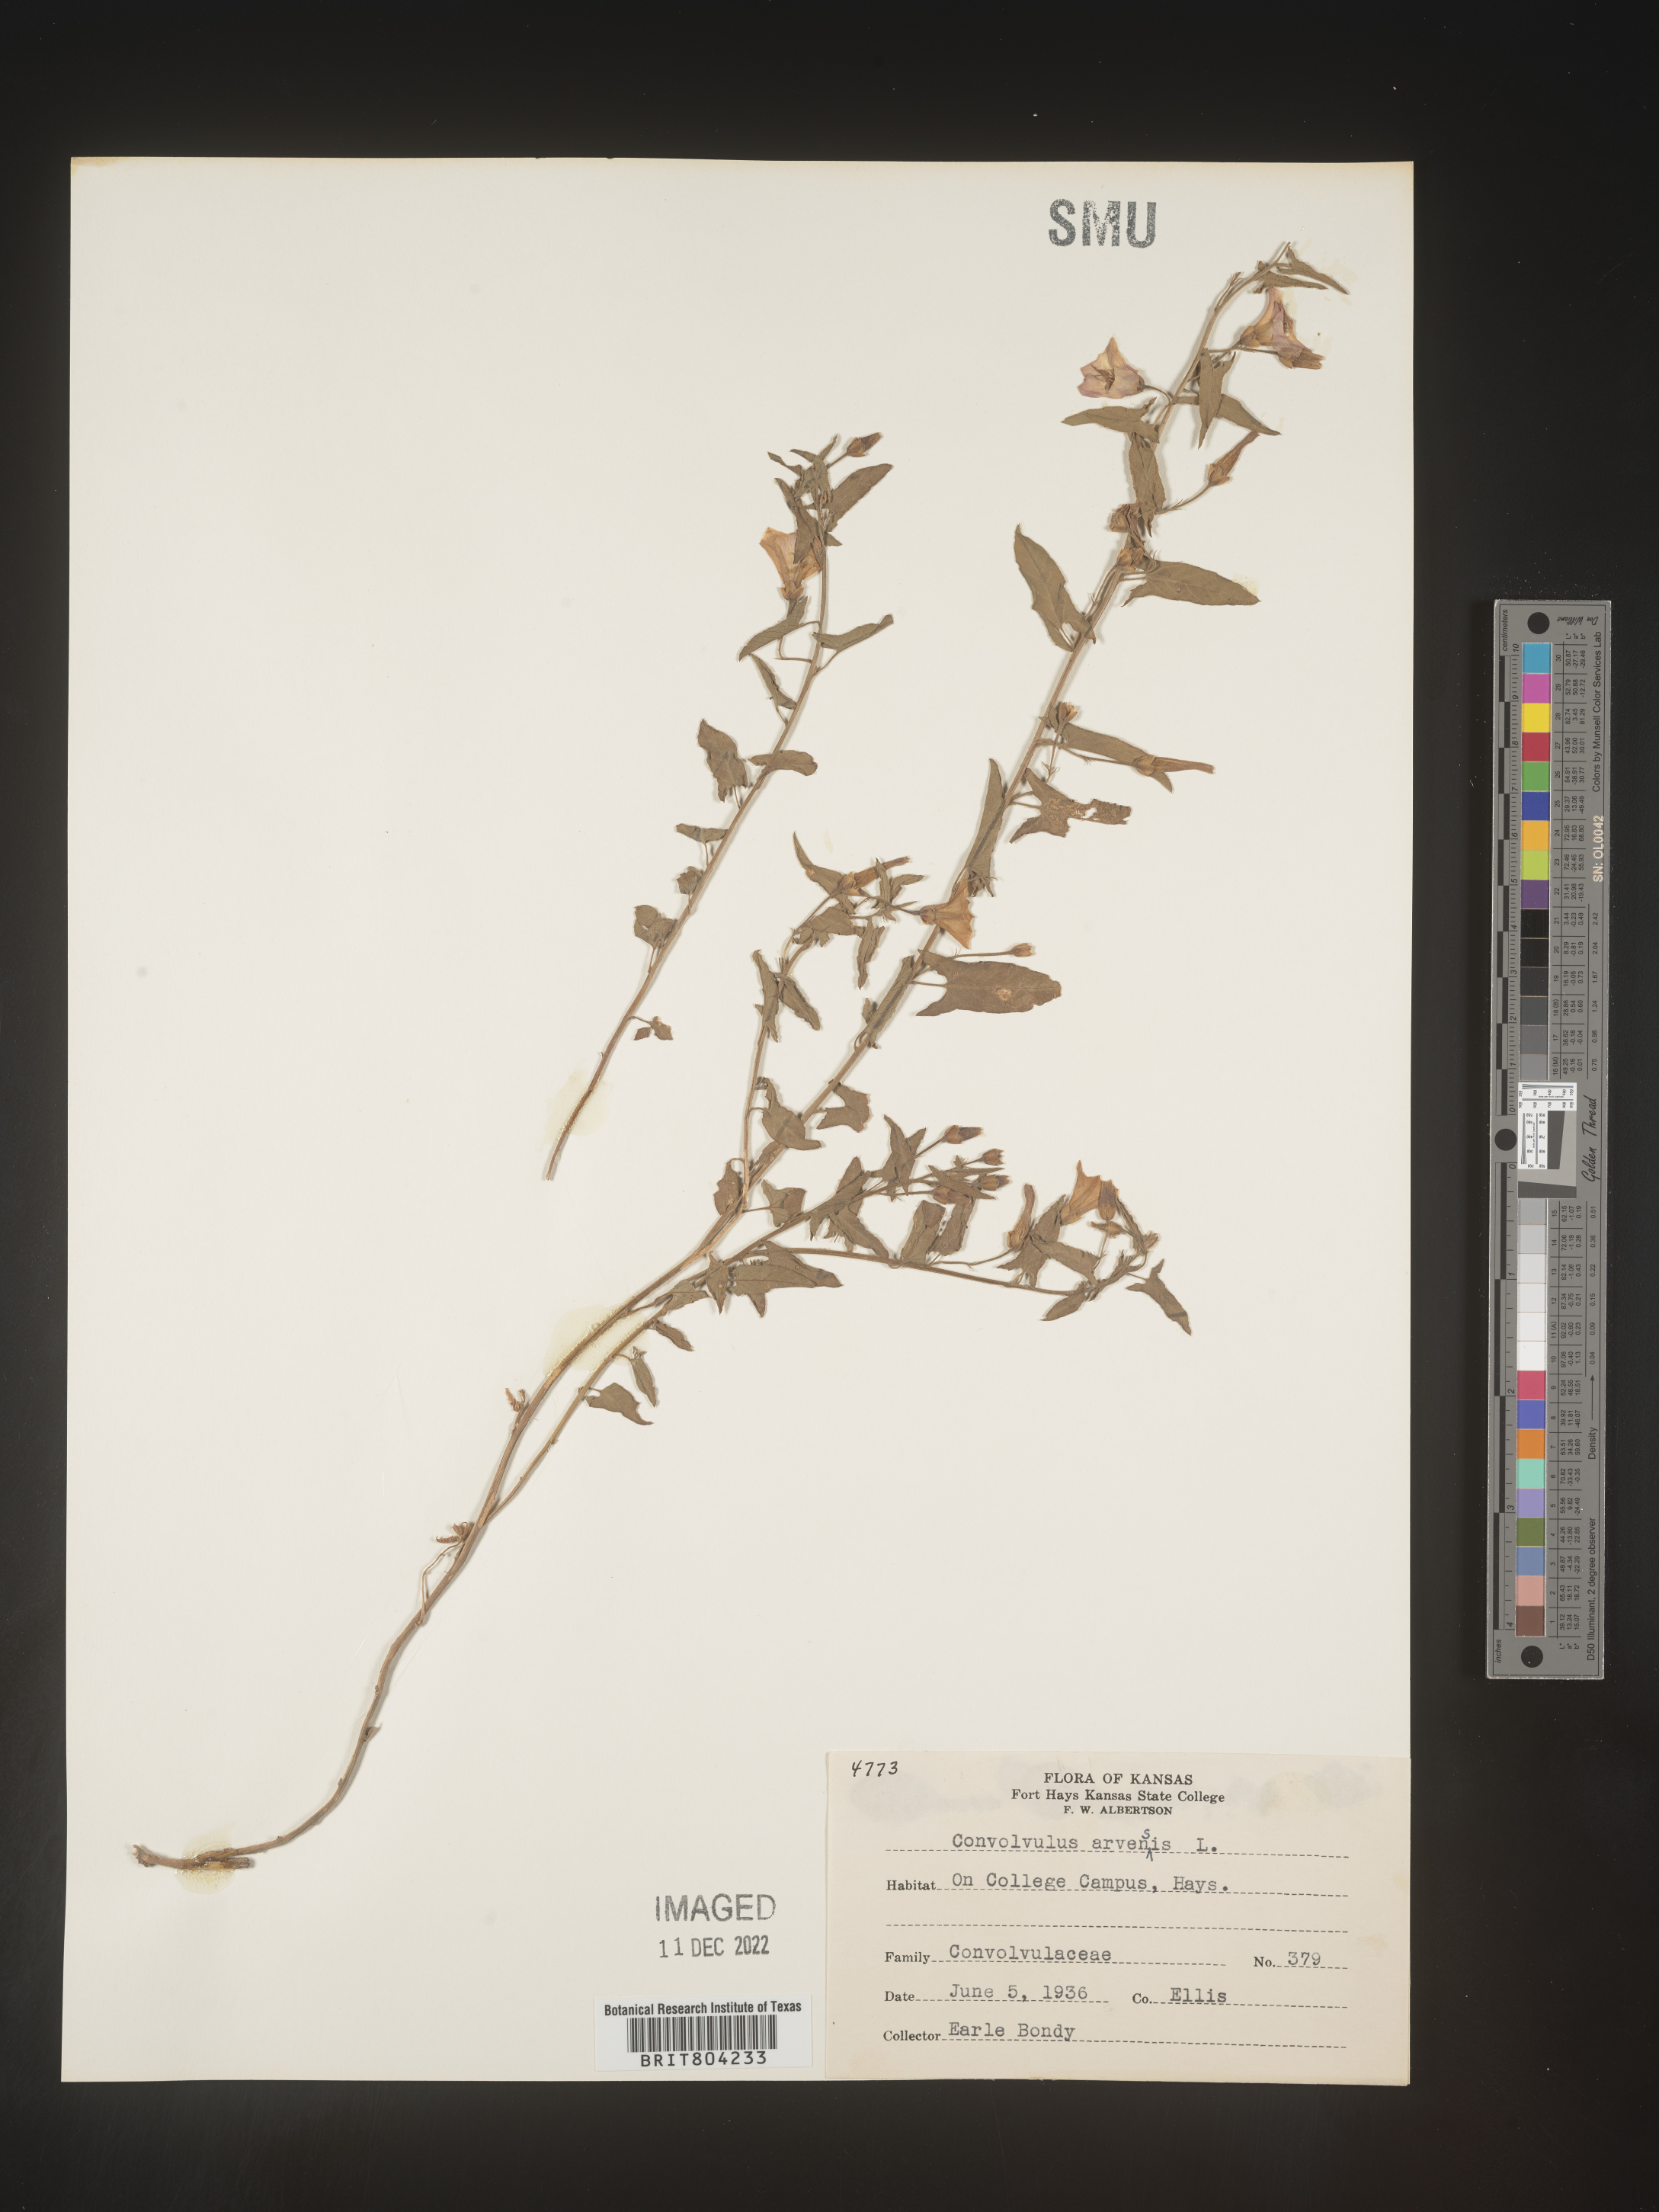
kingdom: Plantae
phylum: Tracheophyta
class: Magnoliopsida
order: Solanales
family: Convolvulaceae
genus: Convolvulus
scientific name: Convolvulus arvensis
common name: Field bindweed
